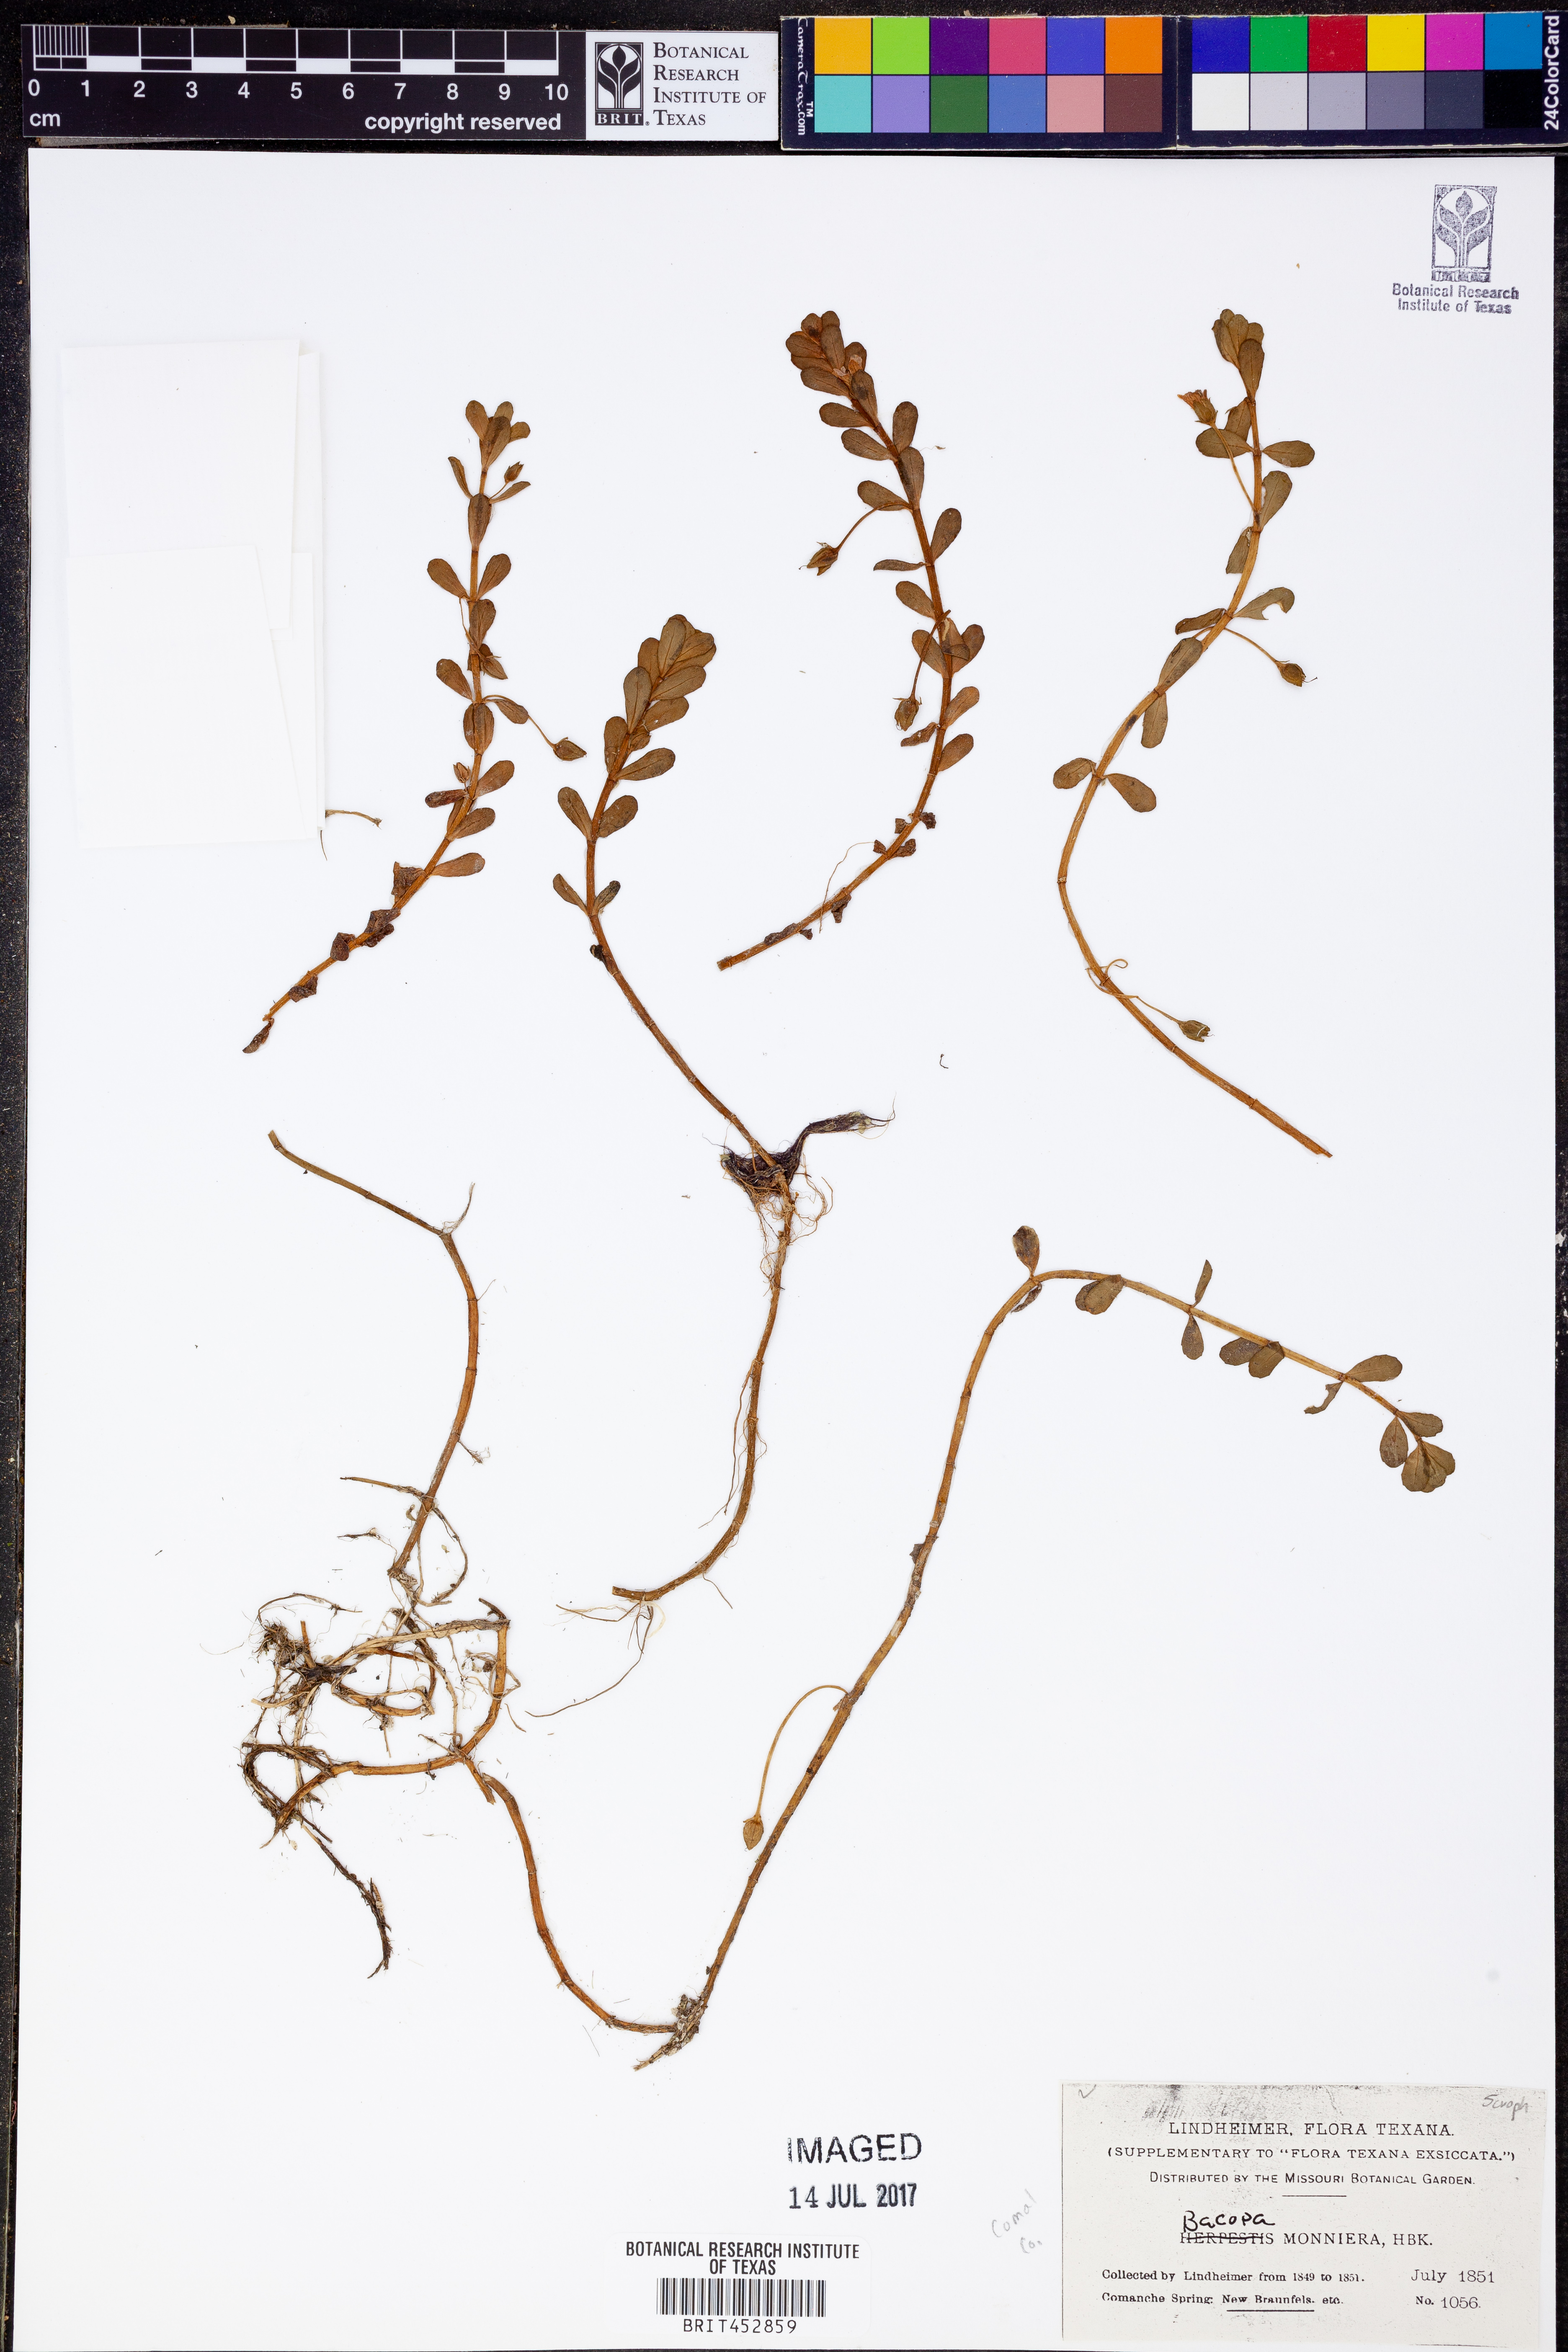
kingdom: Plantae
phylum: Tracheophyta
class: Magnoliopsida
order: Lamiales
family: Plantaginaceae
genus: Bacopa
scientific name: Bacopa monnieri
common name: Indian-pennywort
